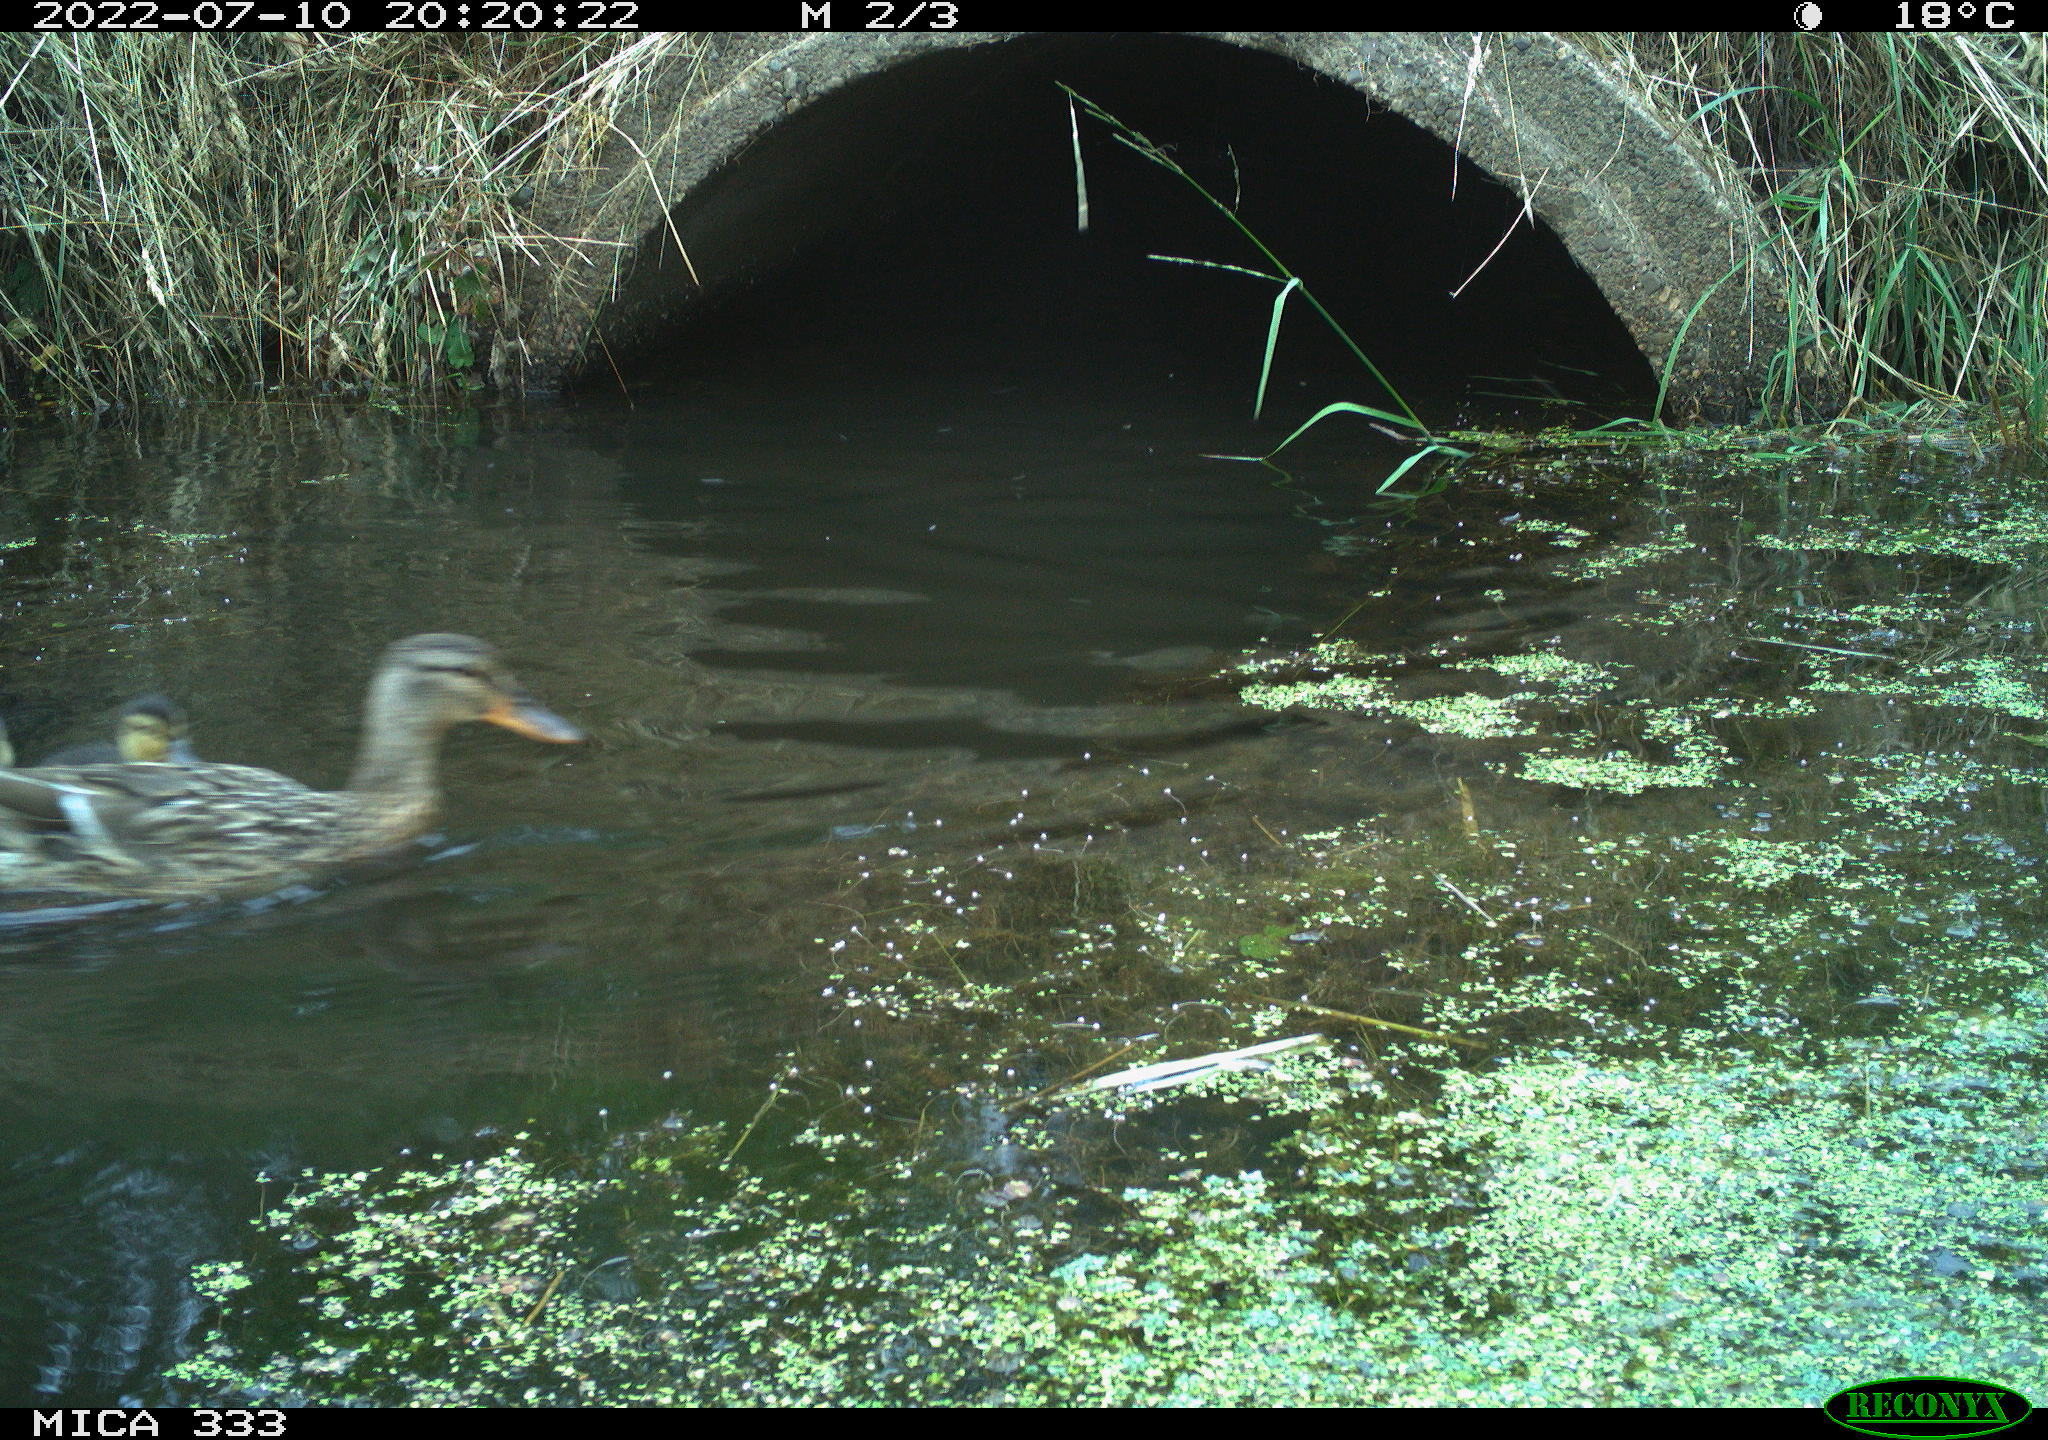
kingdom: Animalia
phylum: Chordata
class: Aves
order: Anseriformes
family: Anatidae
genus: Anas
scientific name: Anas platyrhynchos
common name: Mallard
